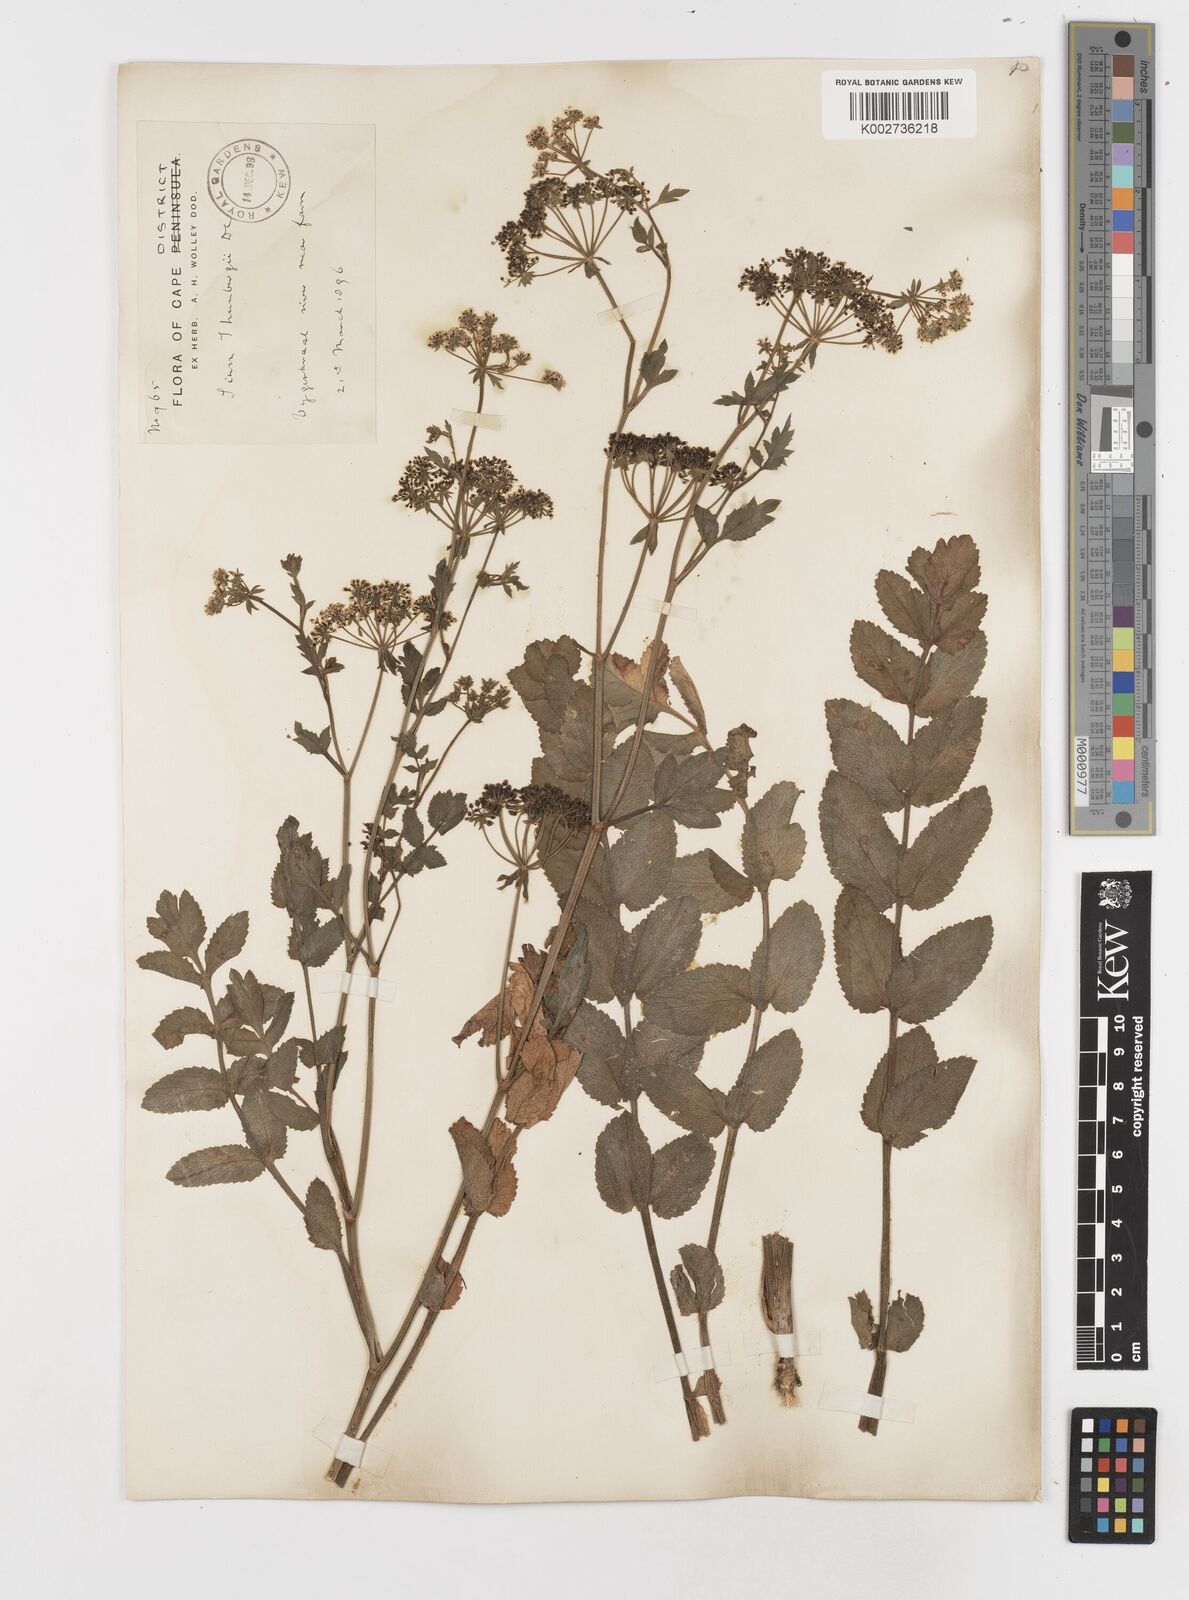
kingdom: Plantae
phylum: Tracheophyta
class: Magnoliopsida
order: Apiales
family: Apiaceae
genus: Berula
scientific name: Berula erecta
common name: Lesser water-parsnip
